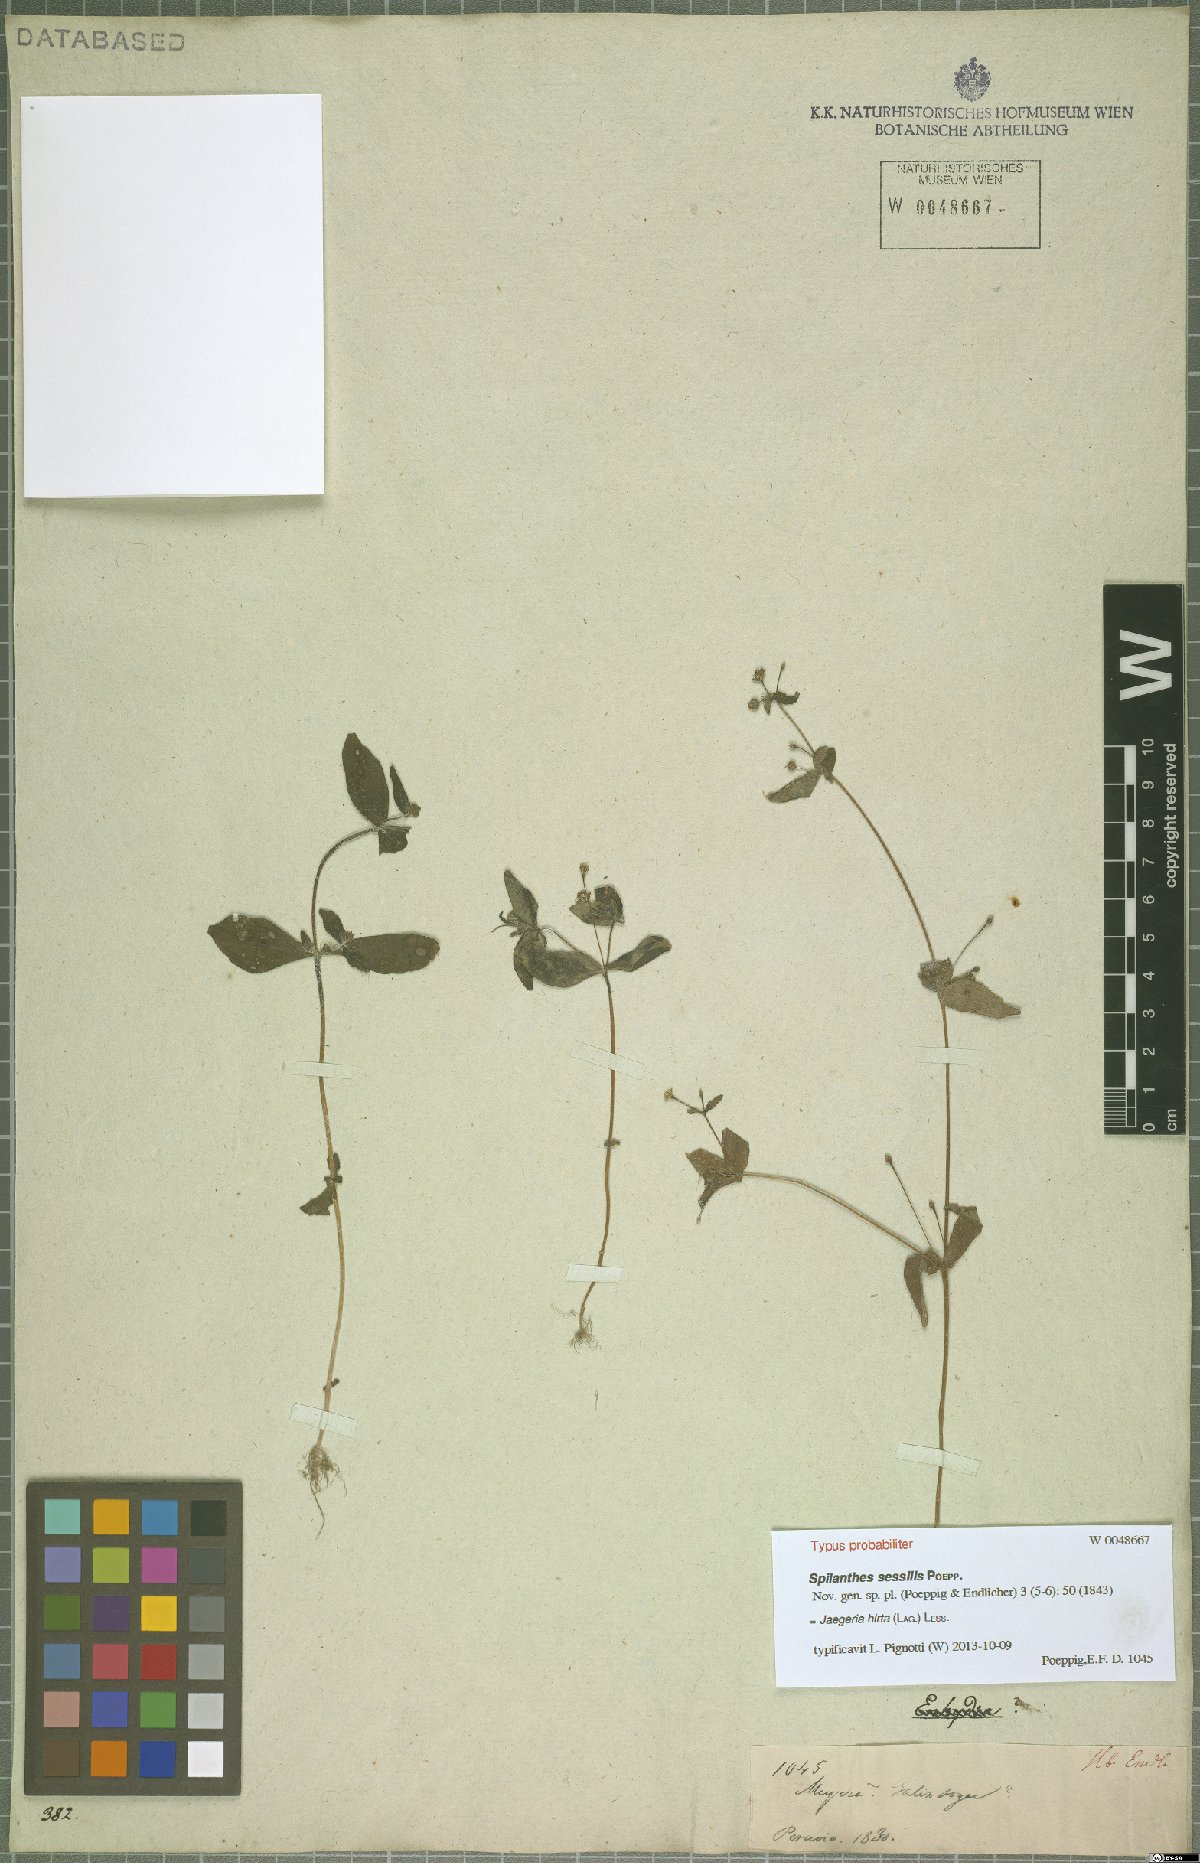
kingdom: Plantae
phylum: Tracheophyta
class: Magnoliopsida
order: Asterales
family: Asteraceae
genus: Jaegeria
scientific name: Jaegeria hirta
